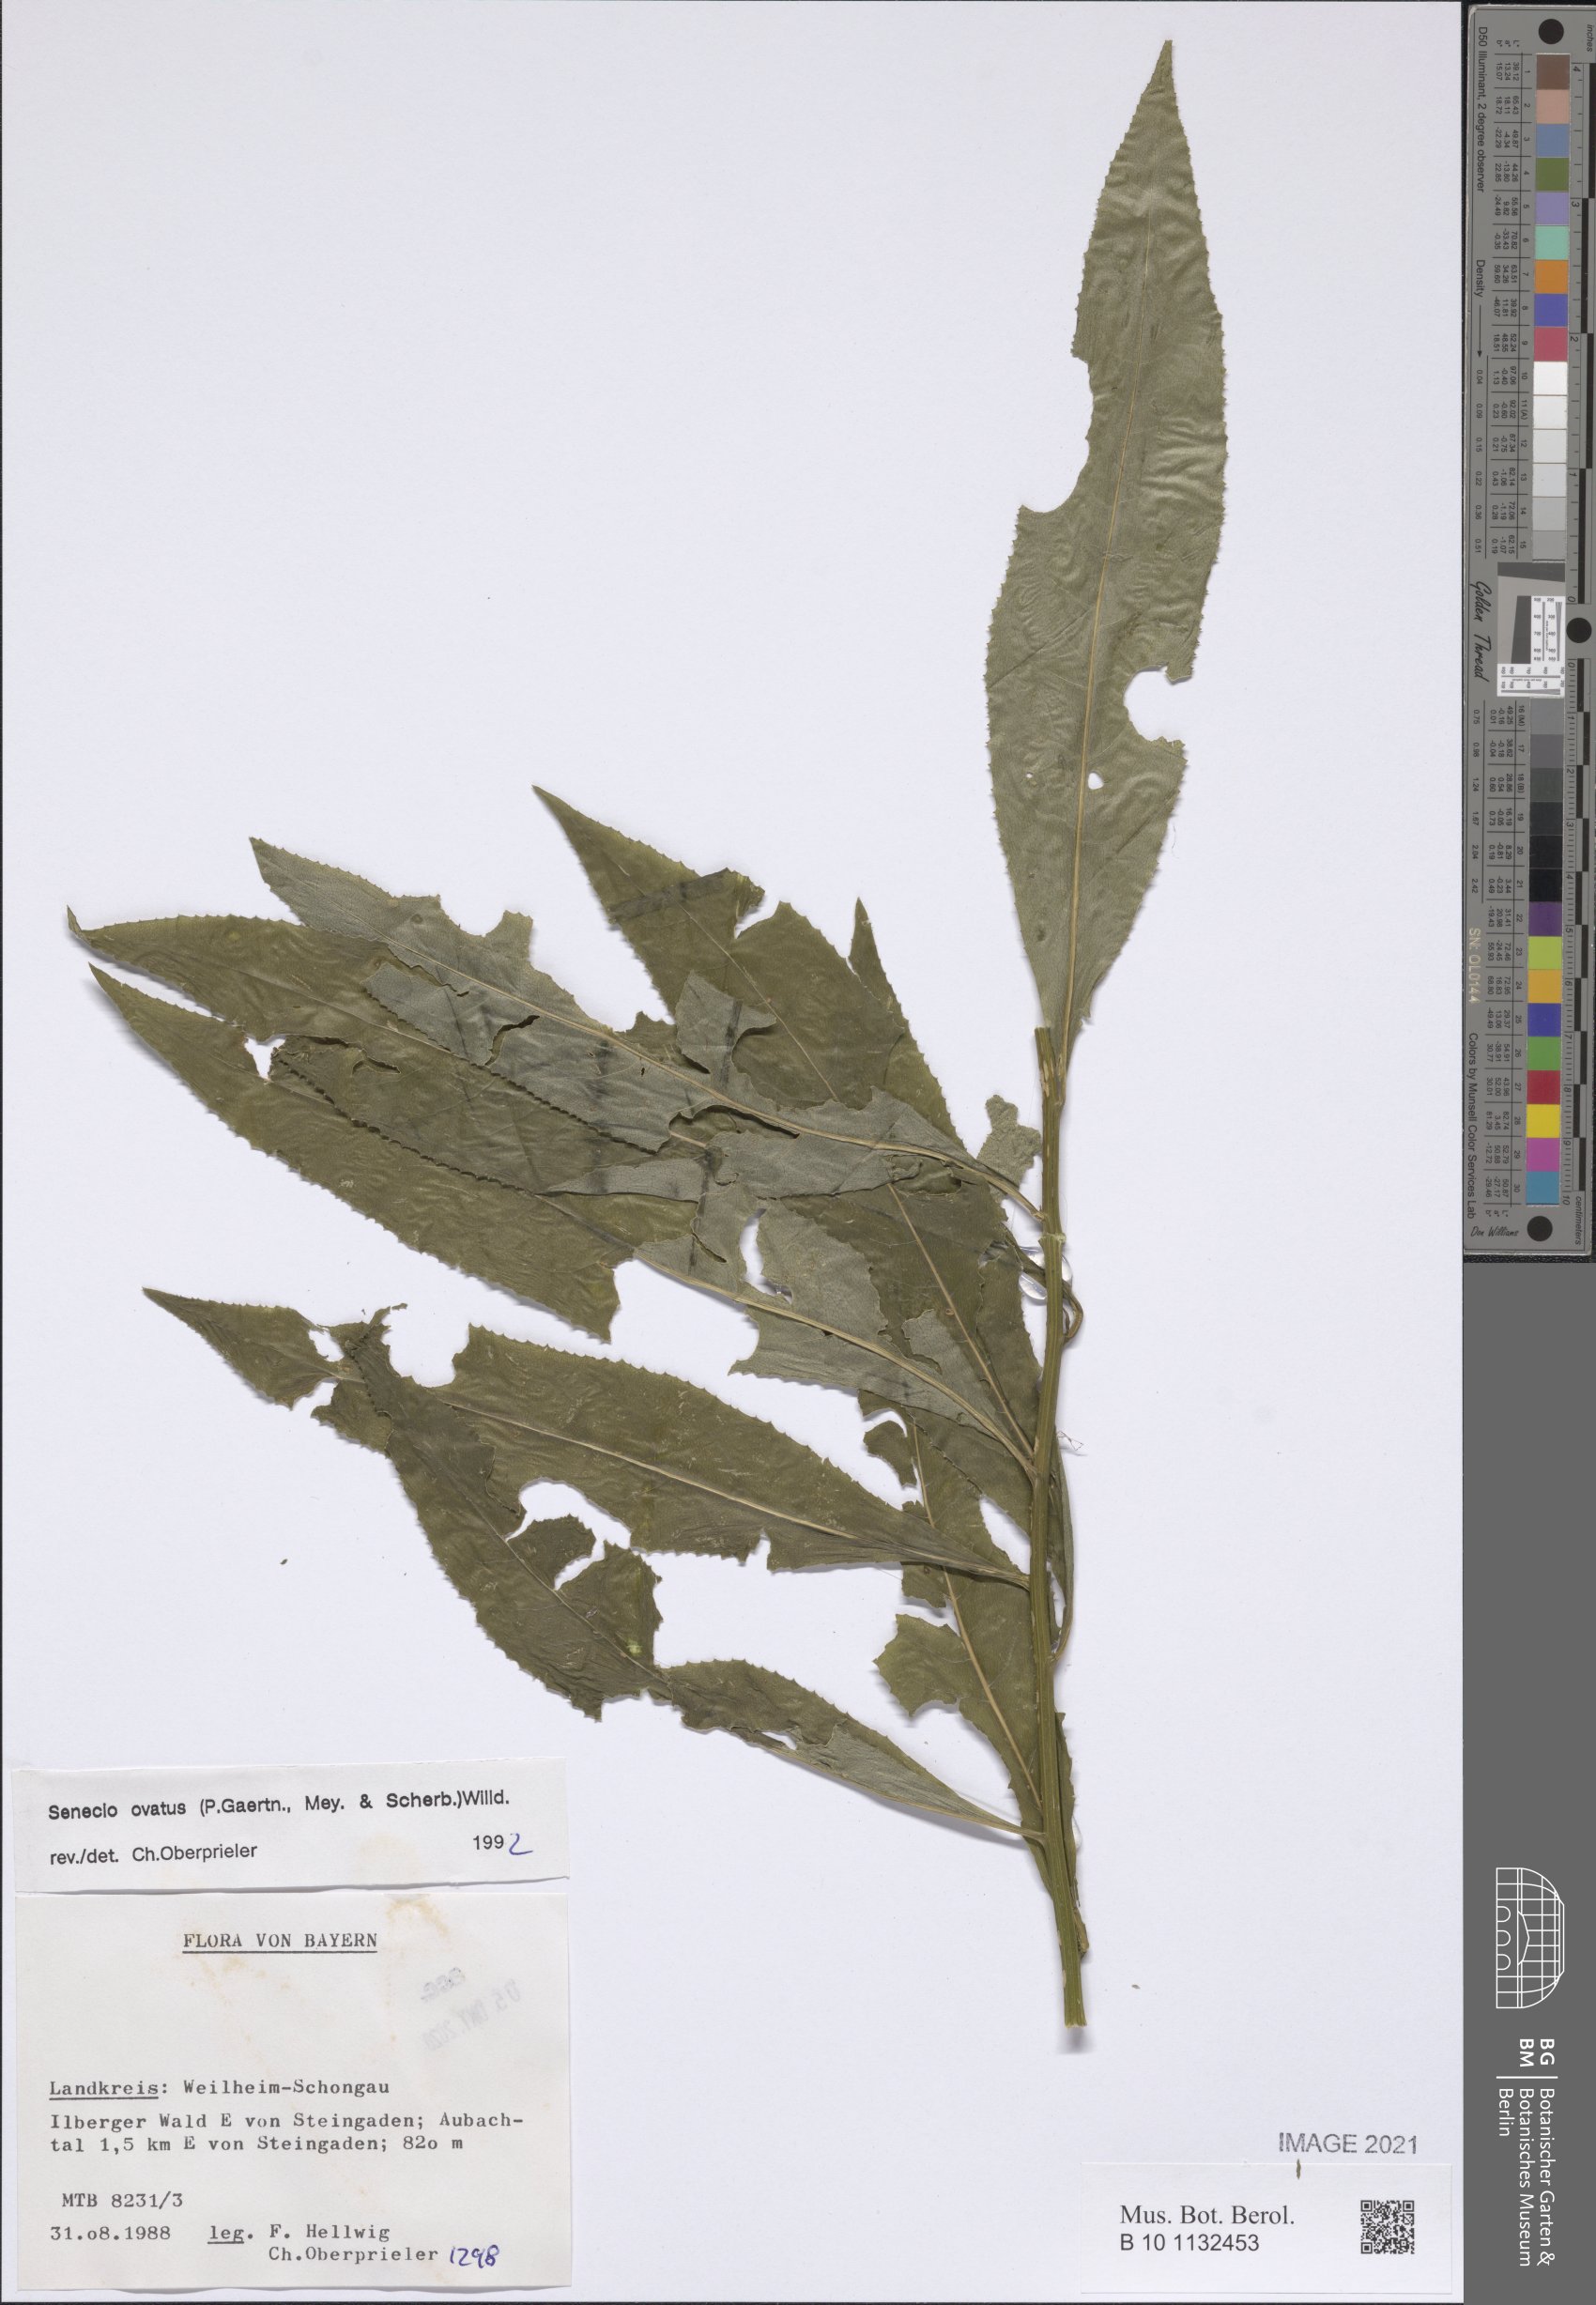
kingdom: Plantae
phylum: Tracheophyta
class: Magnoliopsida
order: Asterales
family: Asteraceae
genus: Senecio
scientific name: Senecio ovatus
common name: Wood ragwort
